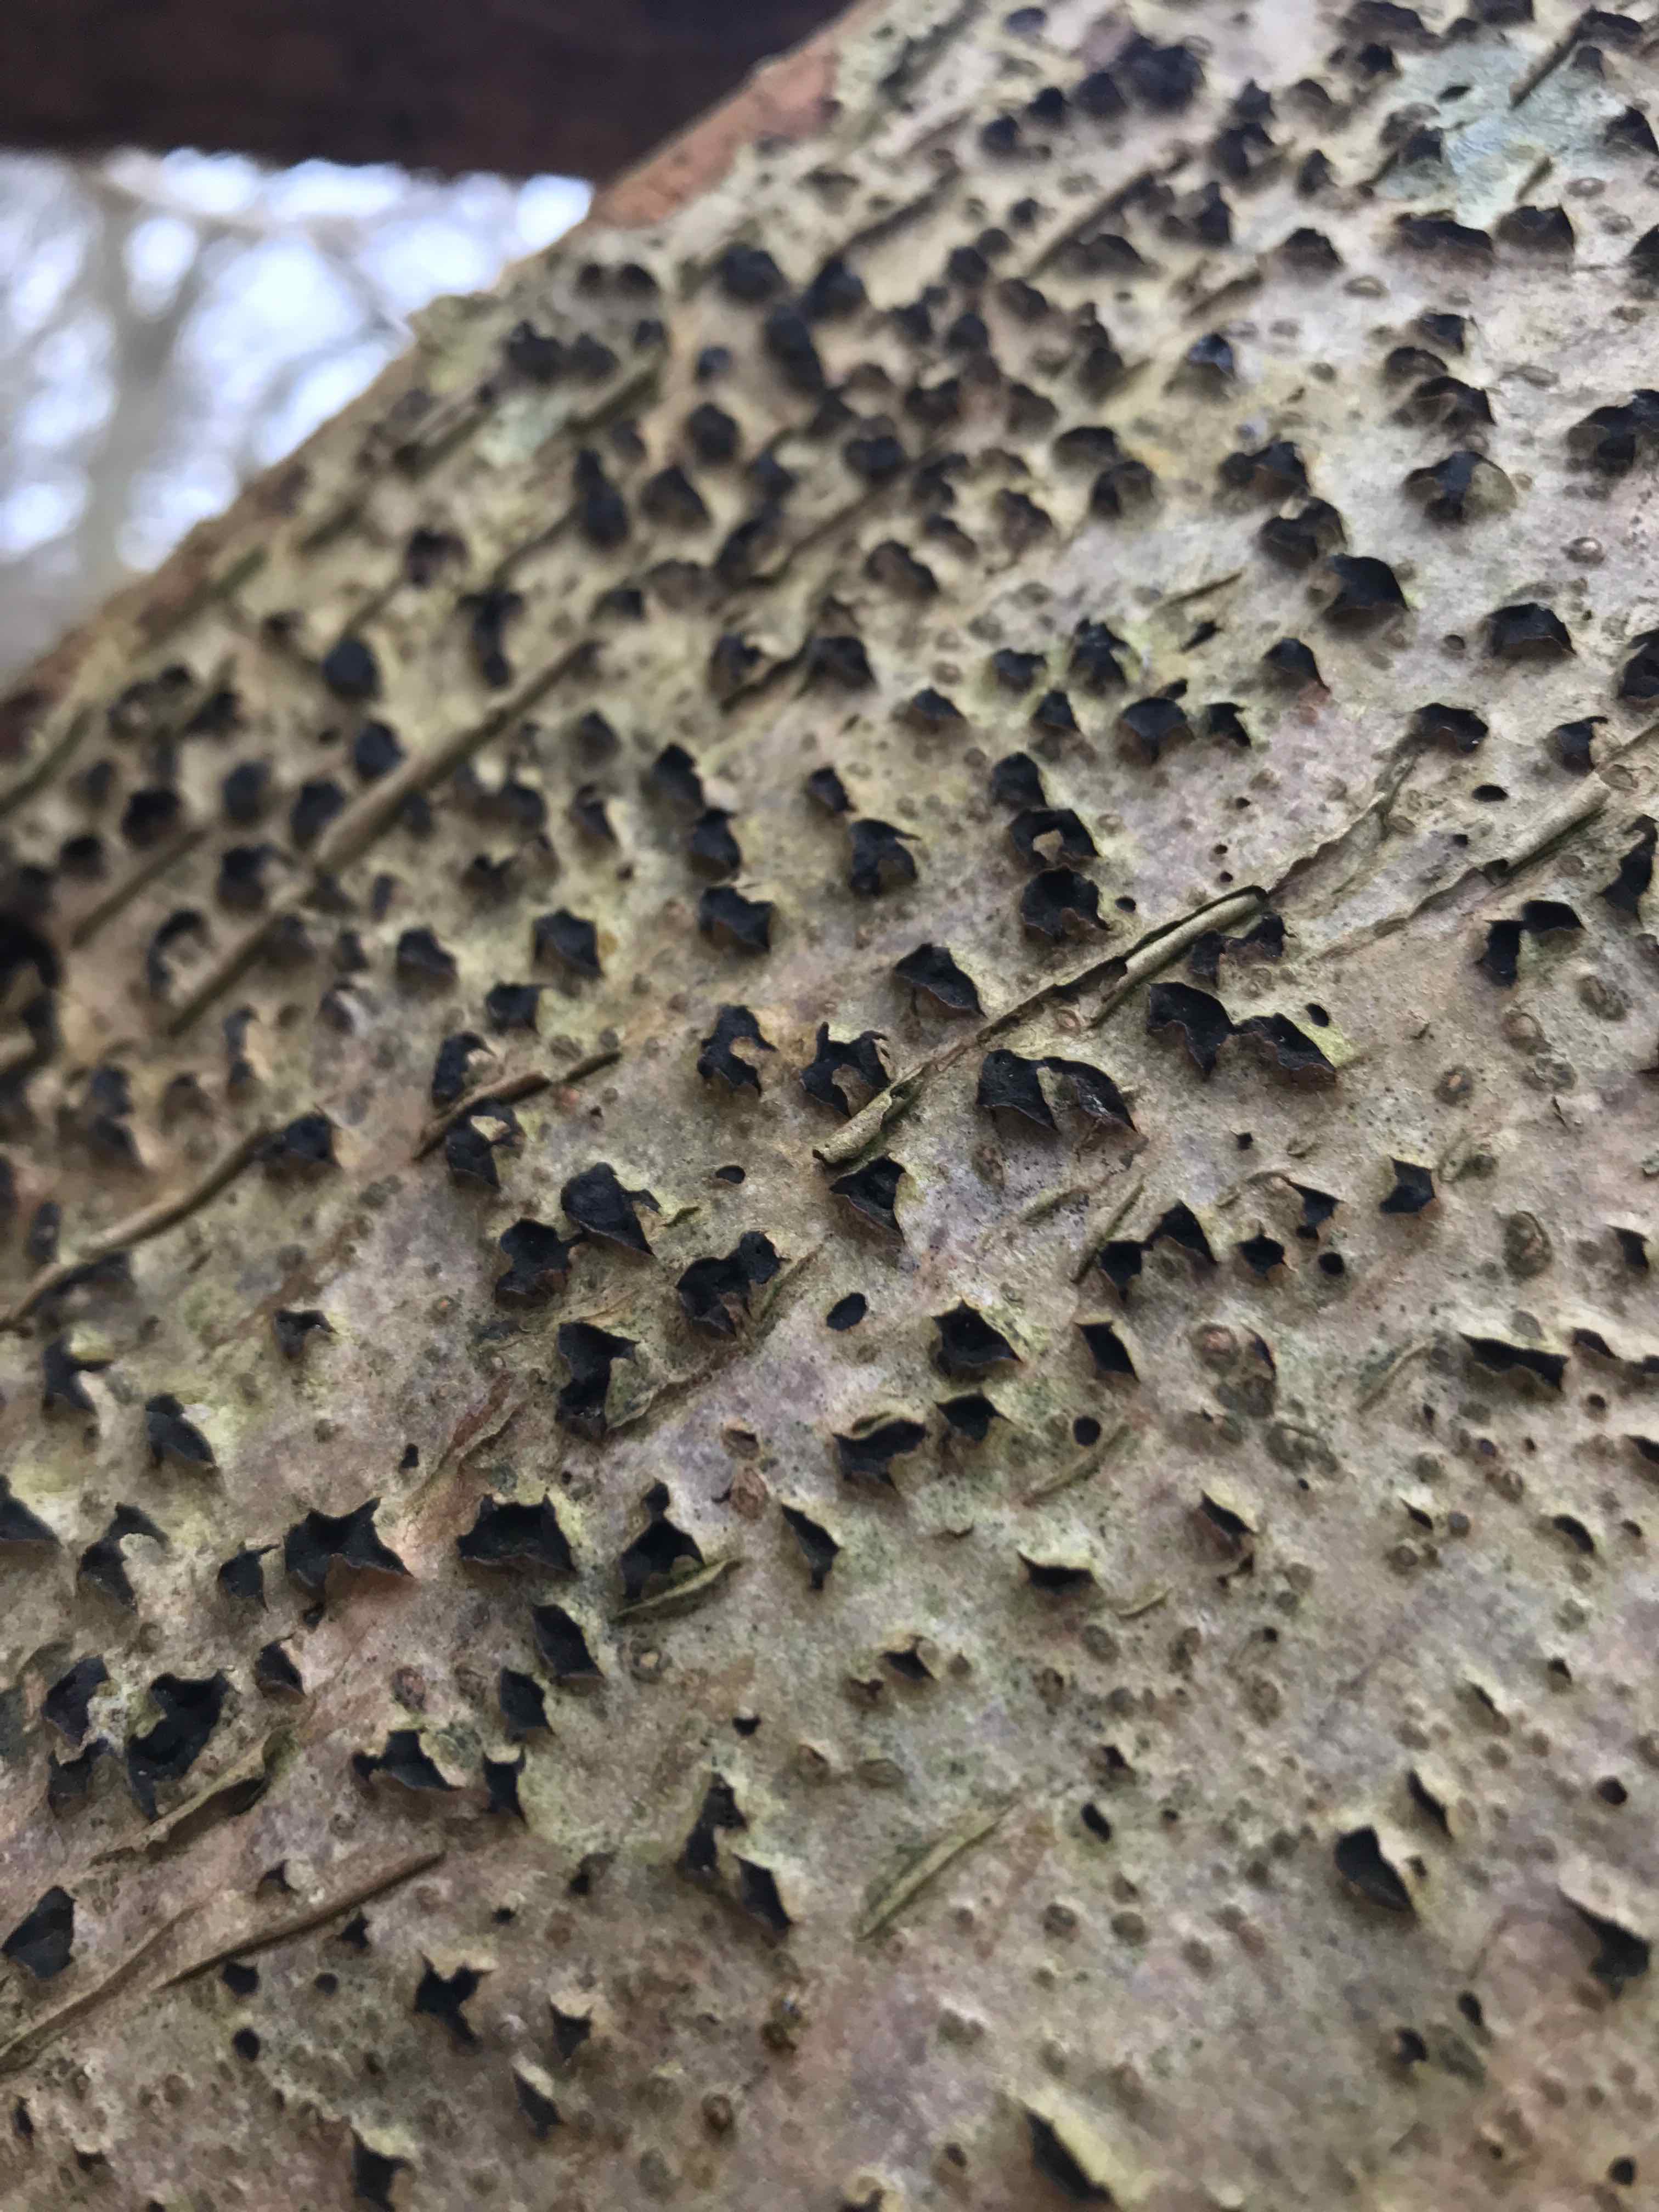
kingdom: Fungi
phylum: Ascomycota
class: Sordariomycetes
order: Xylariales
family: Diatrypaceae
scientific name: Diatrypaceae
